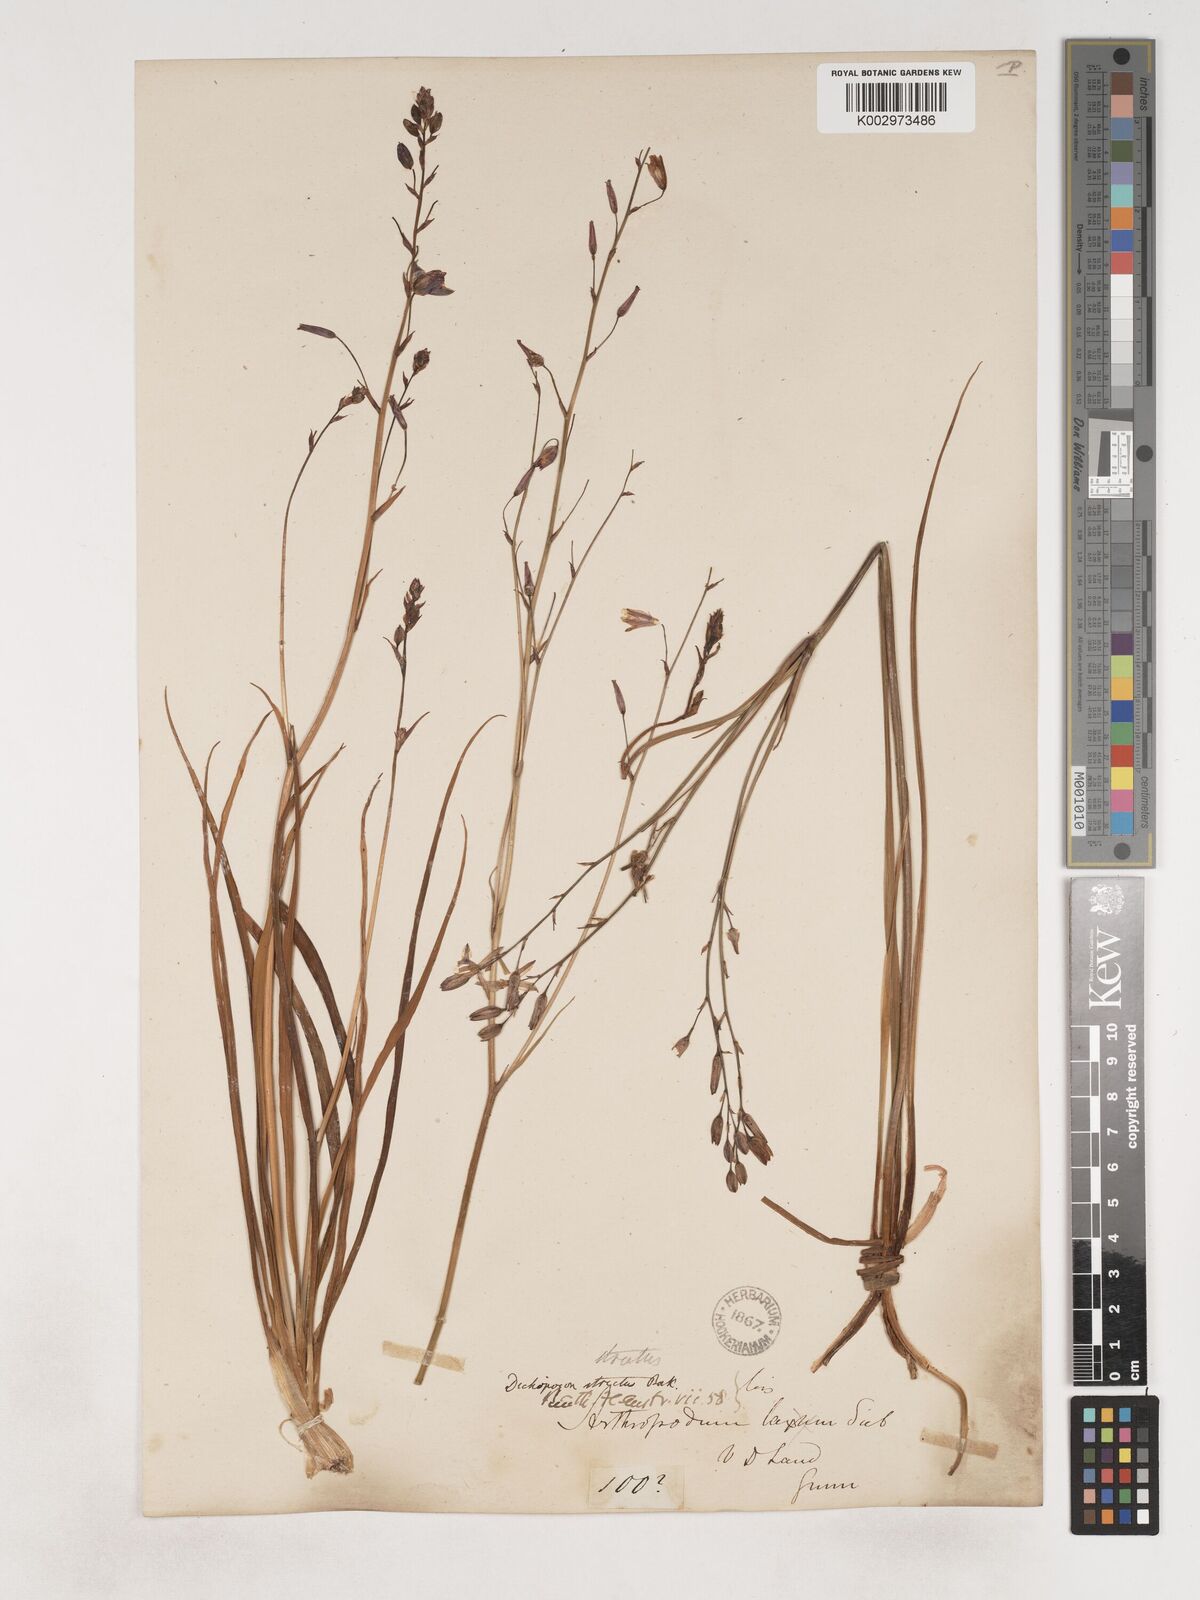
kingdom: Plantae
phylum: Tracheophyta
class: Liliopsida
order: Asparagales
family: Asparagaceae
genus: Arthropodium
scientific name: Arthropodium strictum
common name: Chocolate-lily
